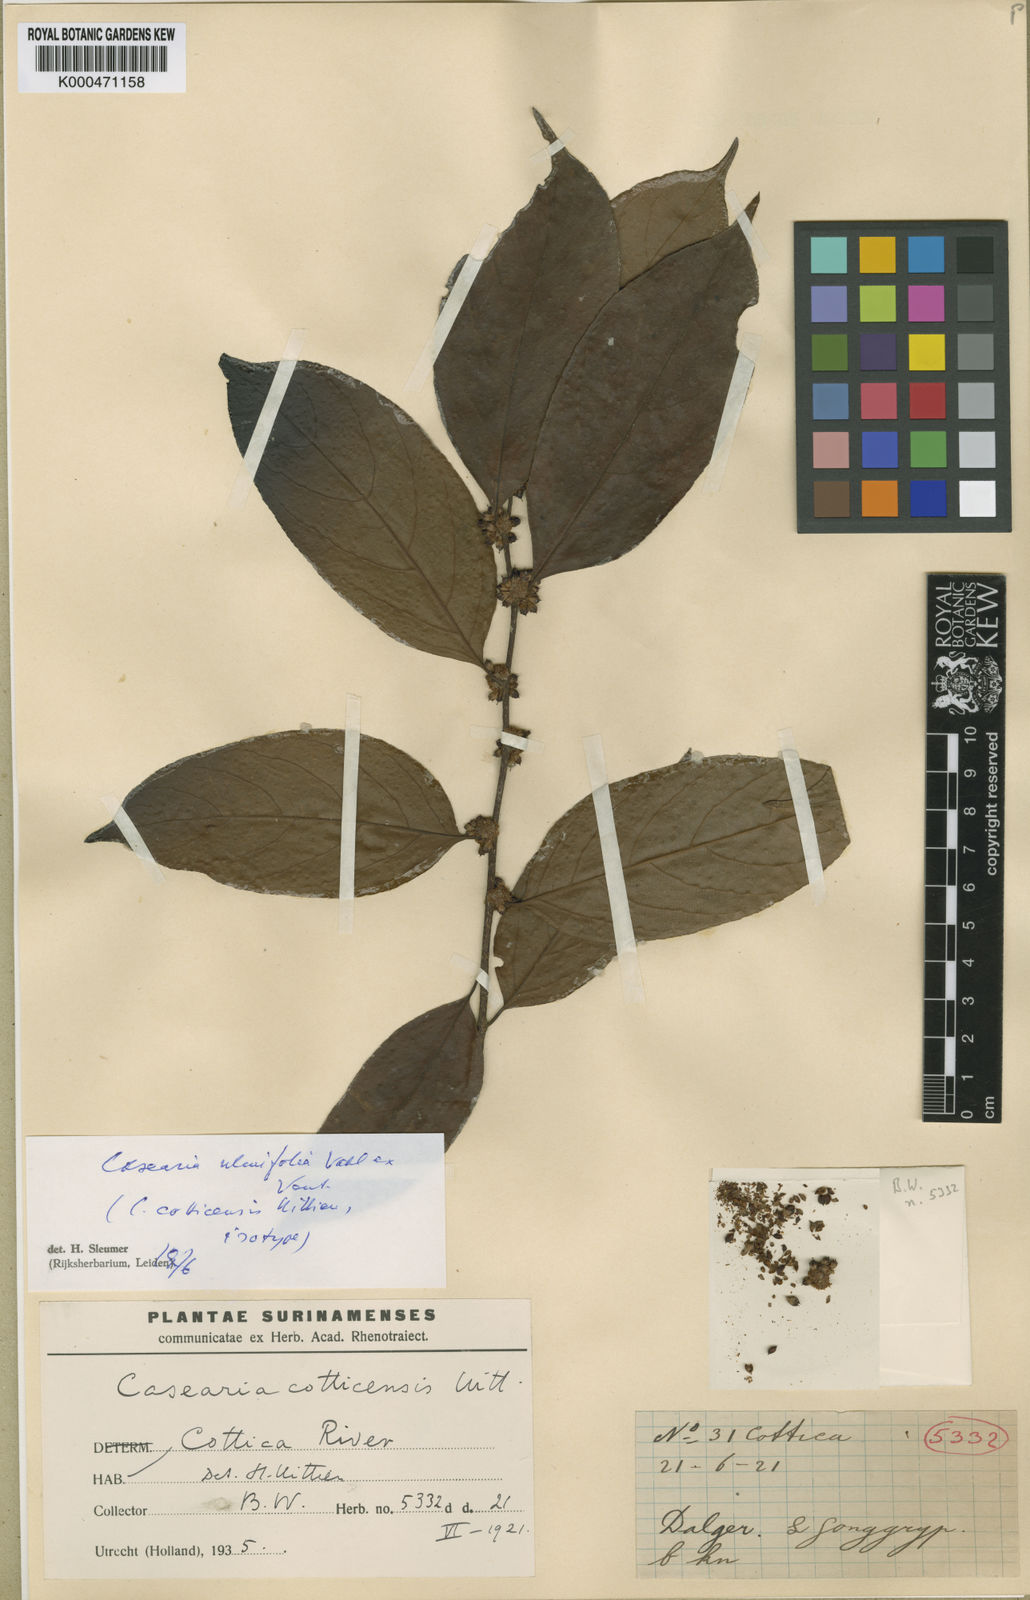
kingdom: Plantae
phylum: Tracheophyta
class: Magnoliopsida
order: Malpighiales
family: Salicaceae
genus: Casearia
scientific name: Casearia cotticensis
